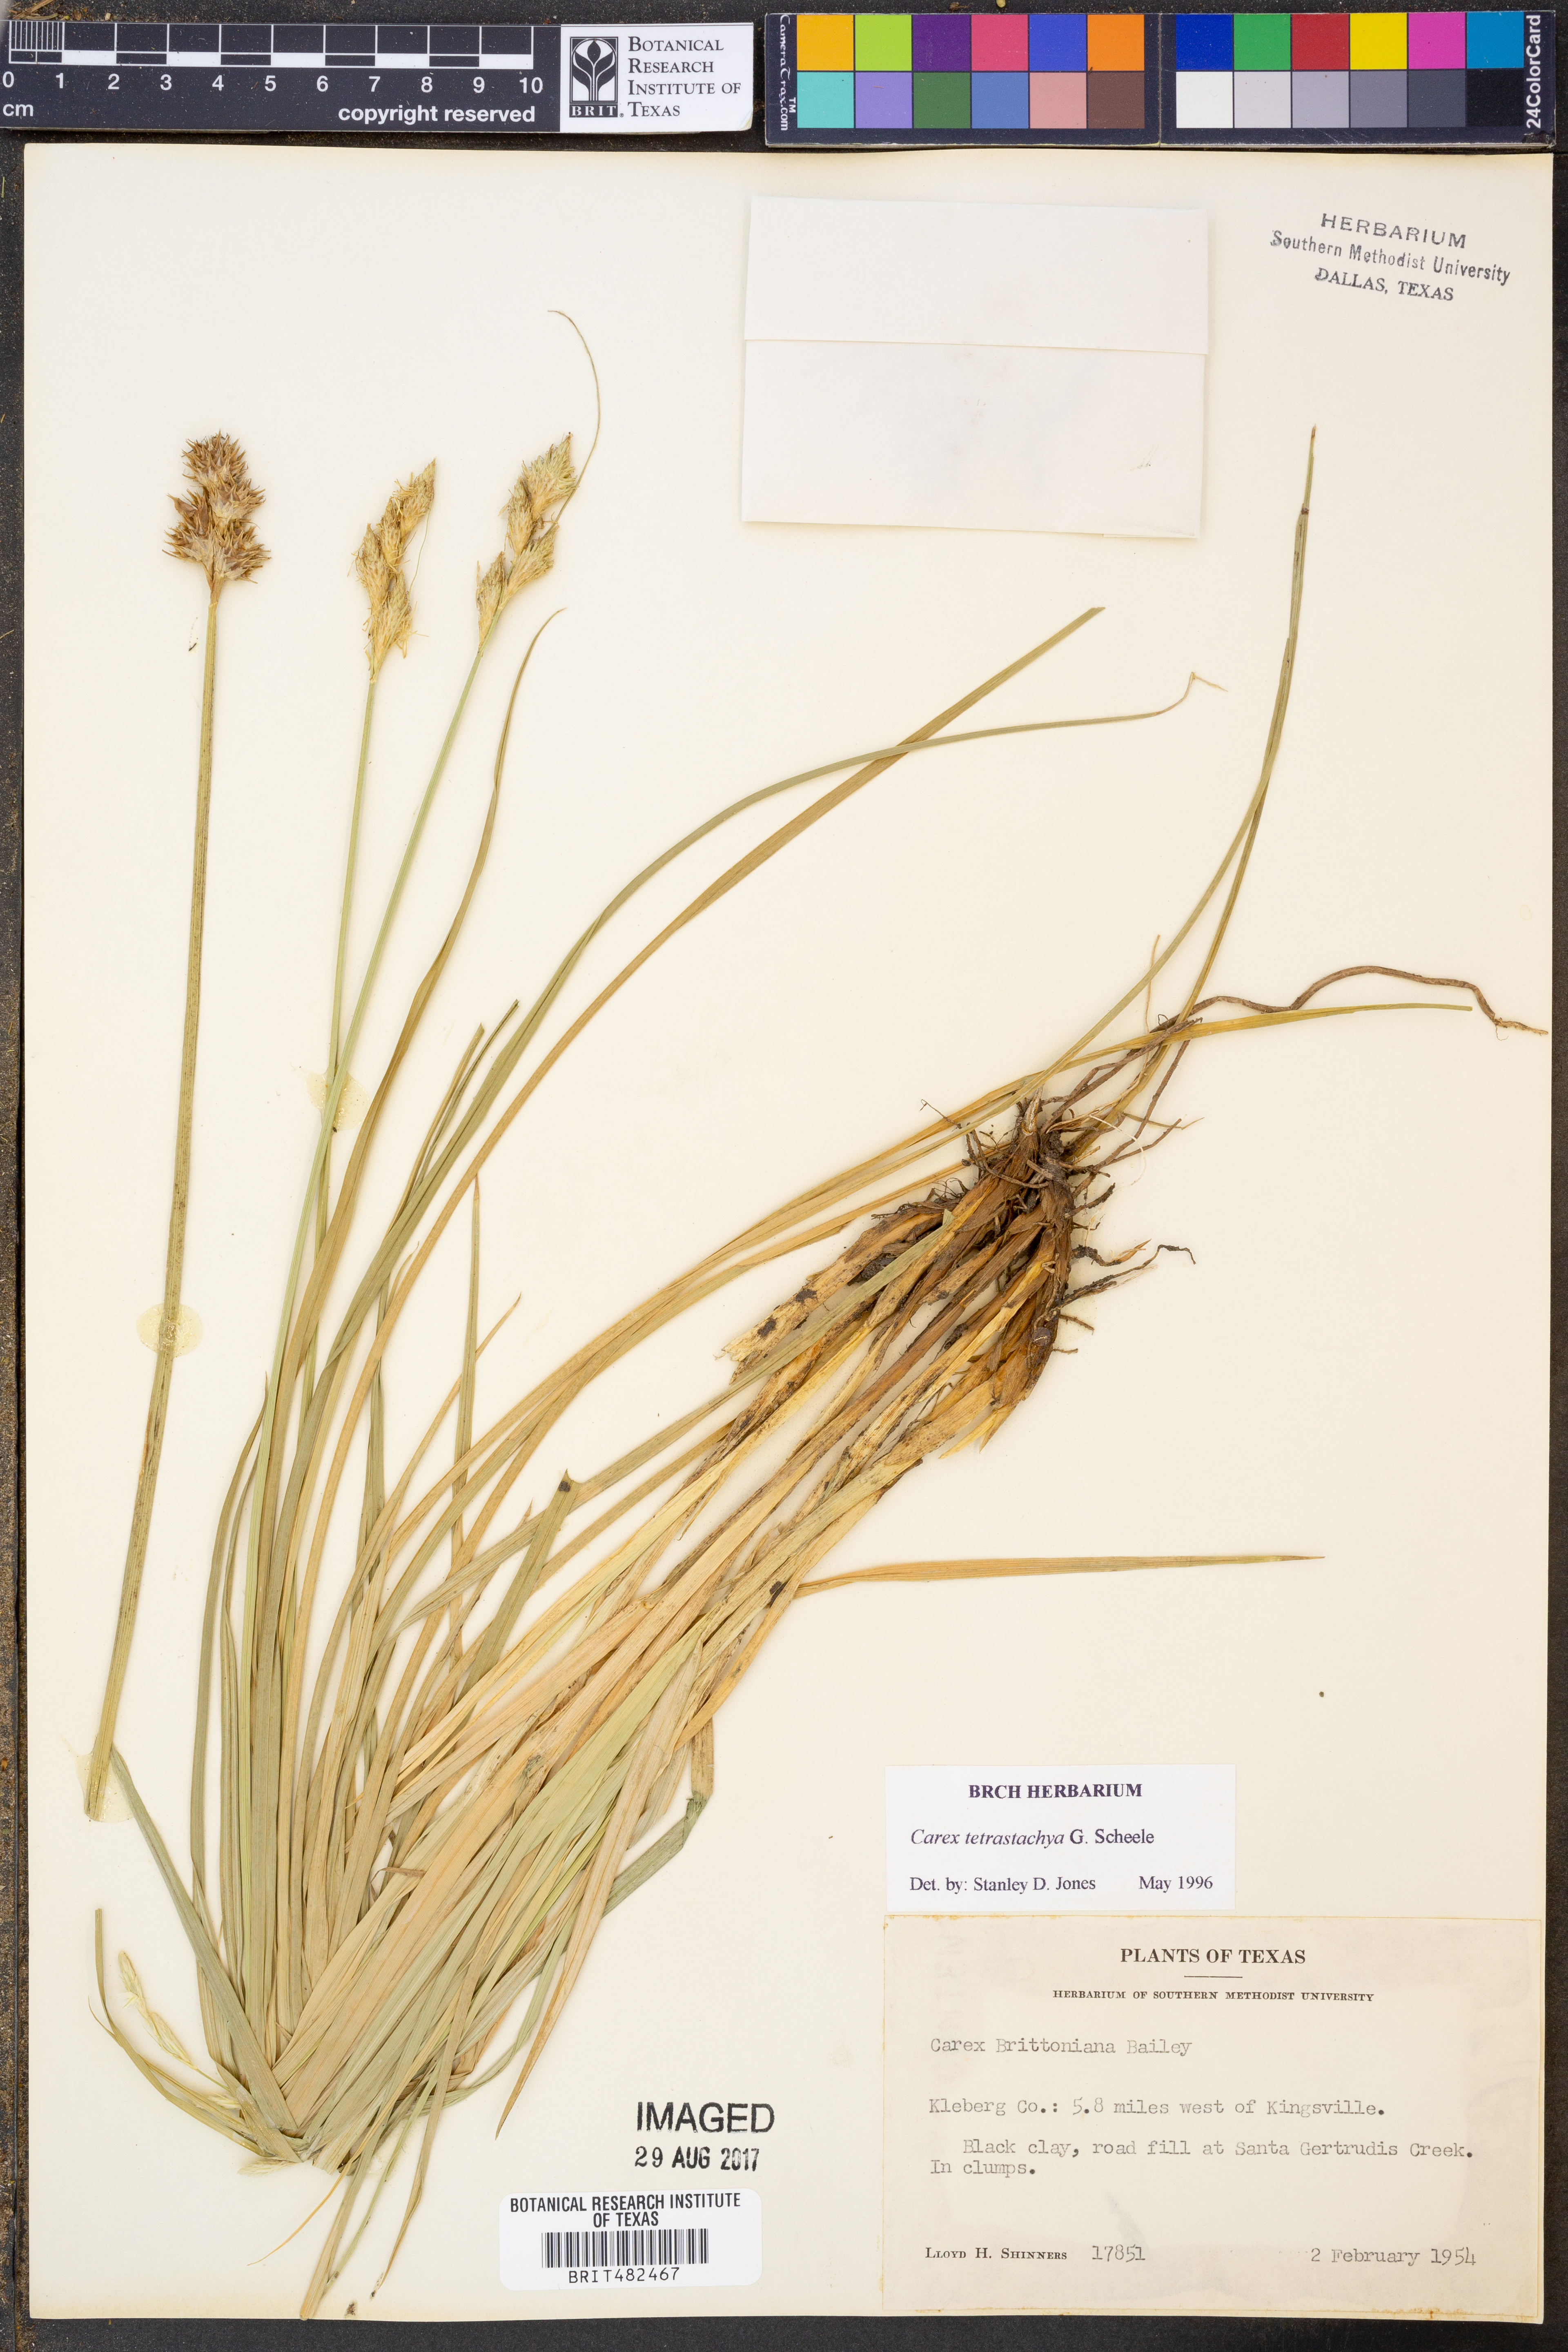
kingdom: Plantae
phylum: Tracheophyta
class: Liliopsida
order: Poales
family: Cyperaceae
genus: Carex
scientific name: Carex tetrastachya
